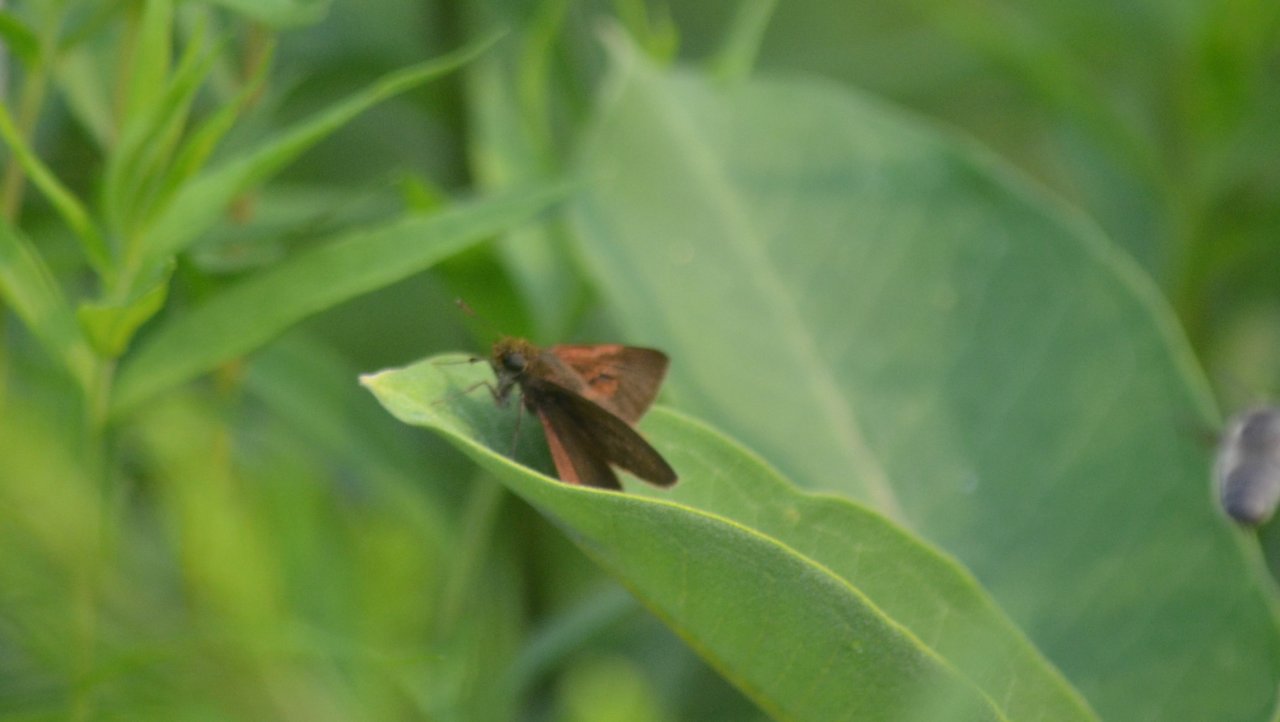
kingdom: Animalia
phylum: Arthropoda
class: Insecta
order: Lepidoptera
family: Hesperiidae
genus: Euphyes
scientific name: Euphyes vestris
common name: Dun Skipper
